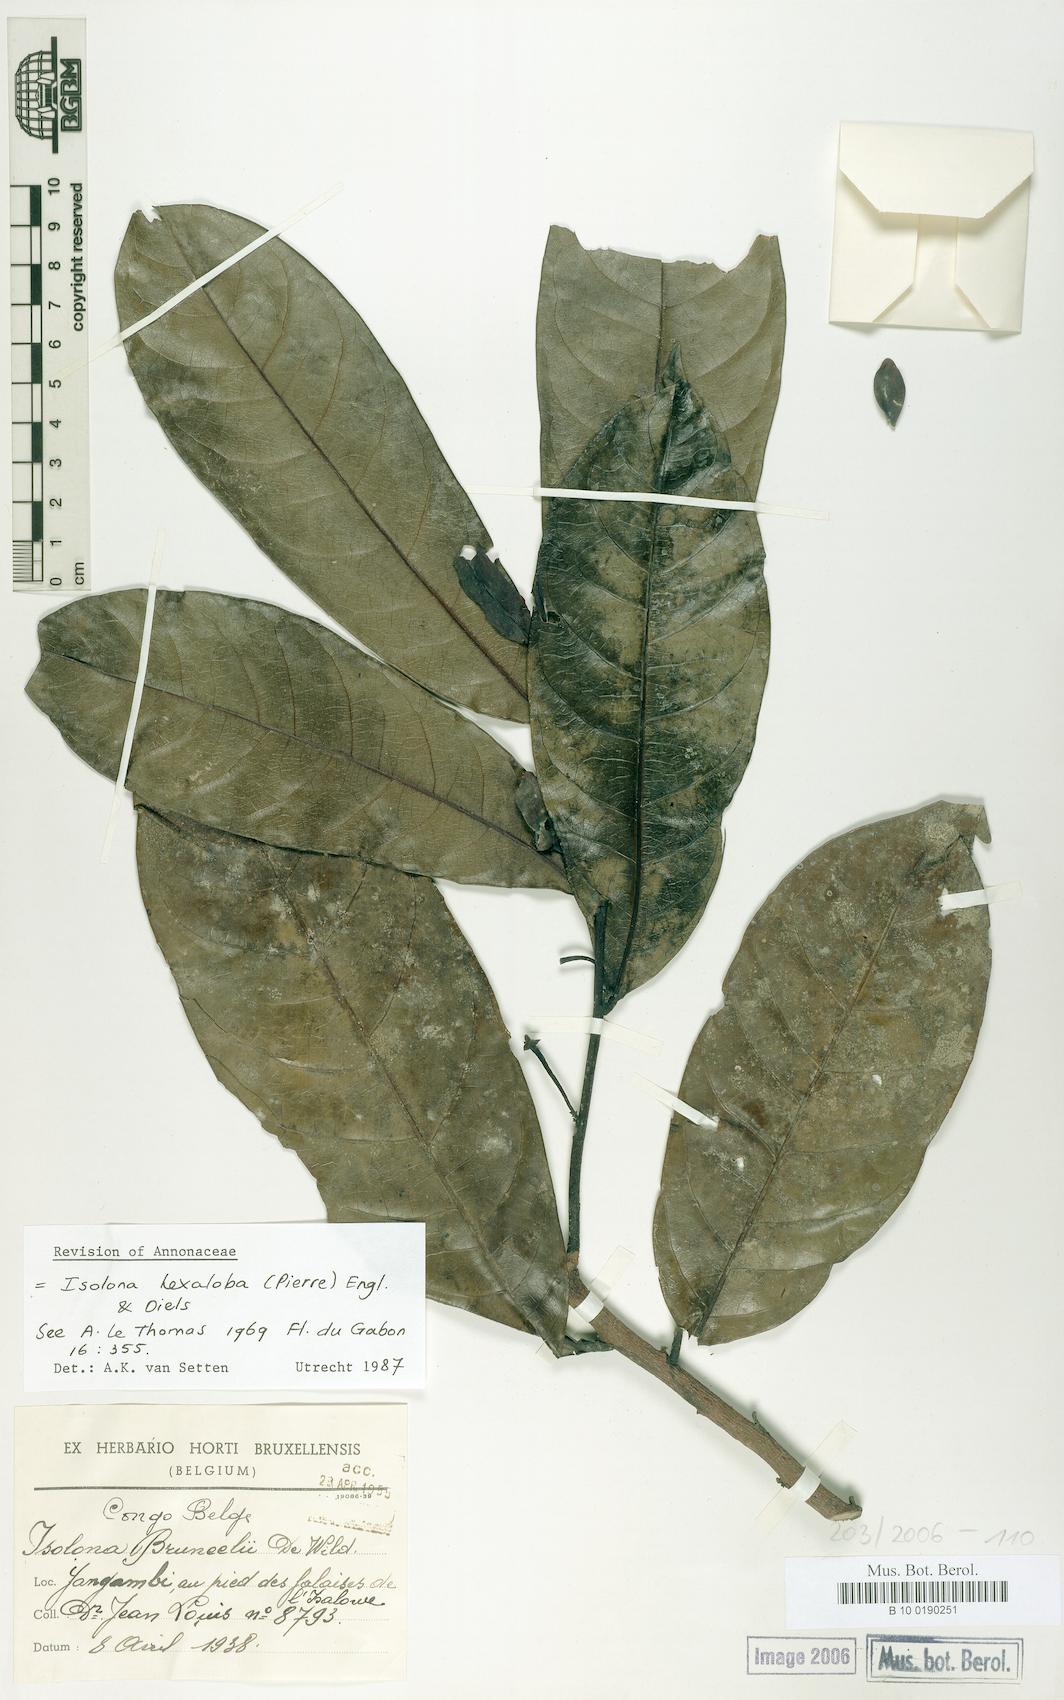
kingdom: Plantae
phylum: Tracheophyta
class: Magnoliopsida
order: Magnoliales
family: Annonaceae
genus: Isolona
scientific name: Isolona hexaloba
